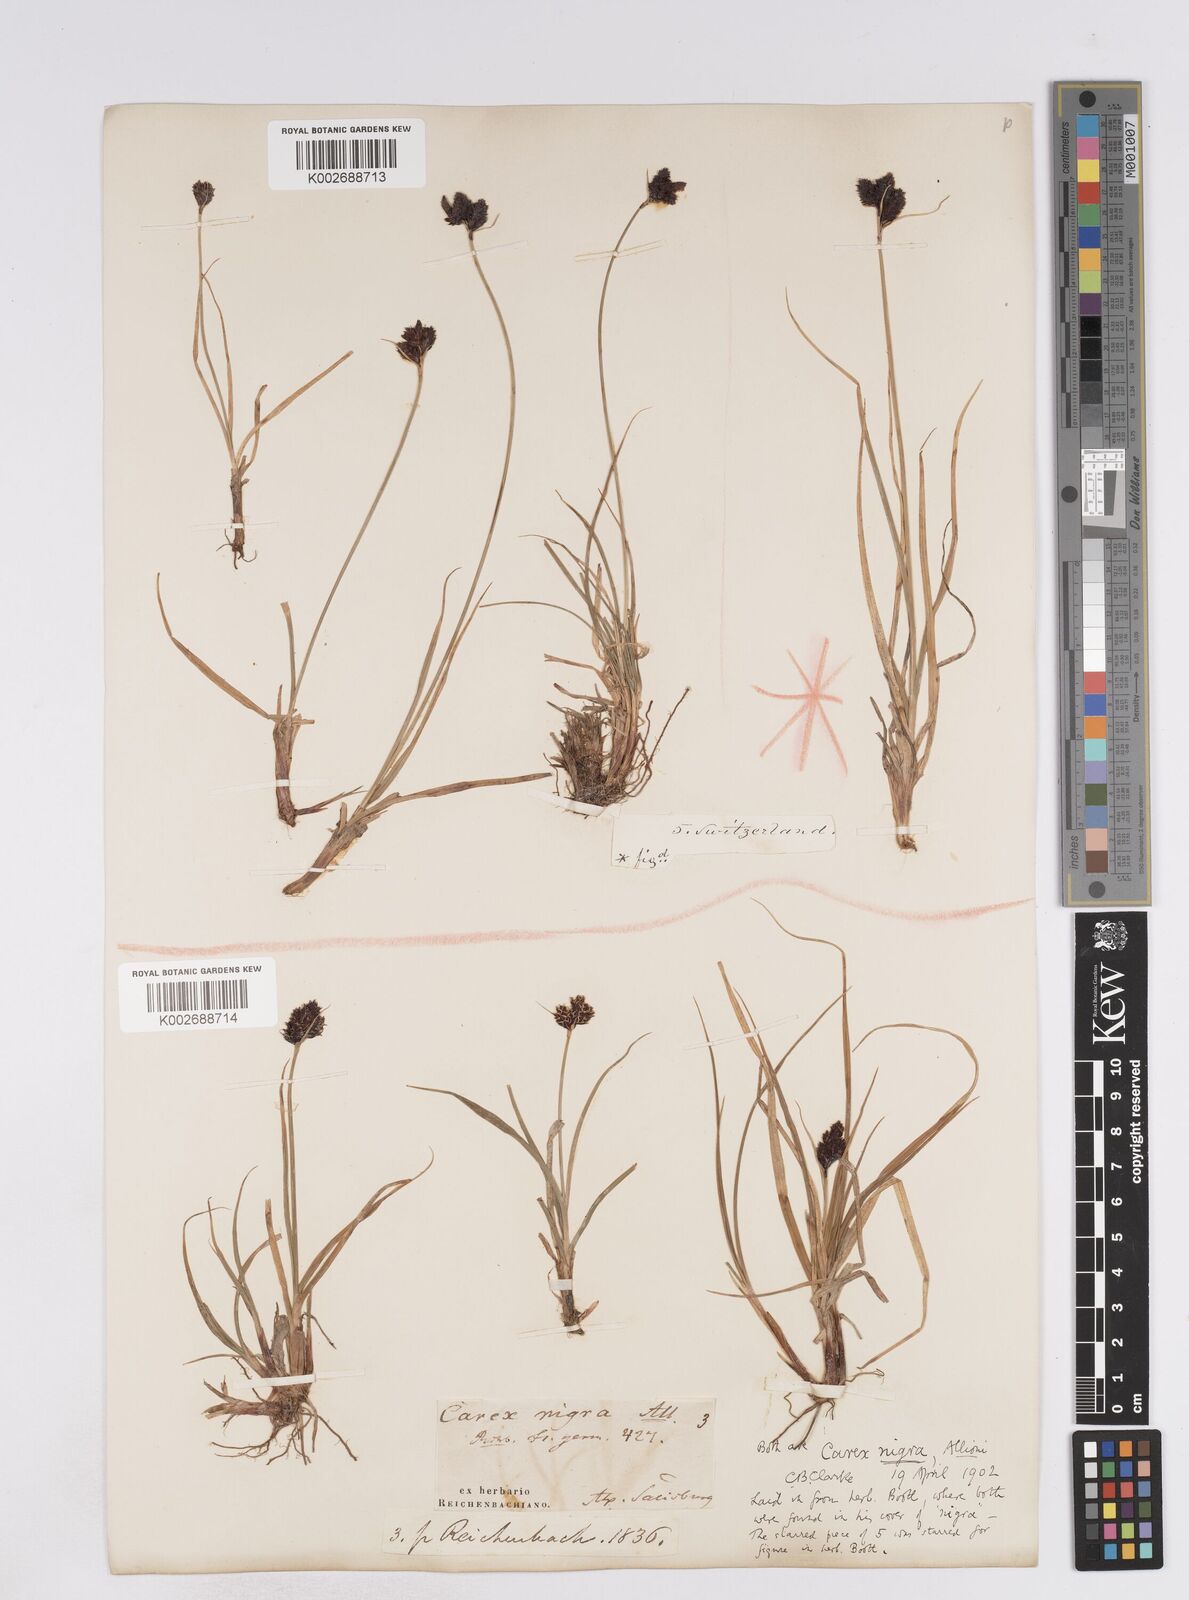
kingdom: Plantae
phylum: Tracheophyta
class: Liliopsida
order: Poales
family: Cyperaceae
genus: Carex
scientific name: Carex parviflora
